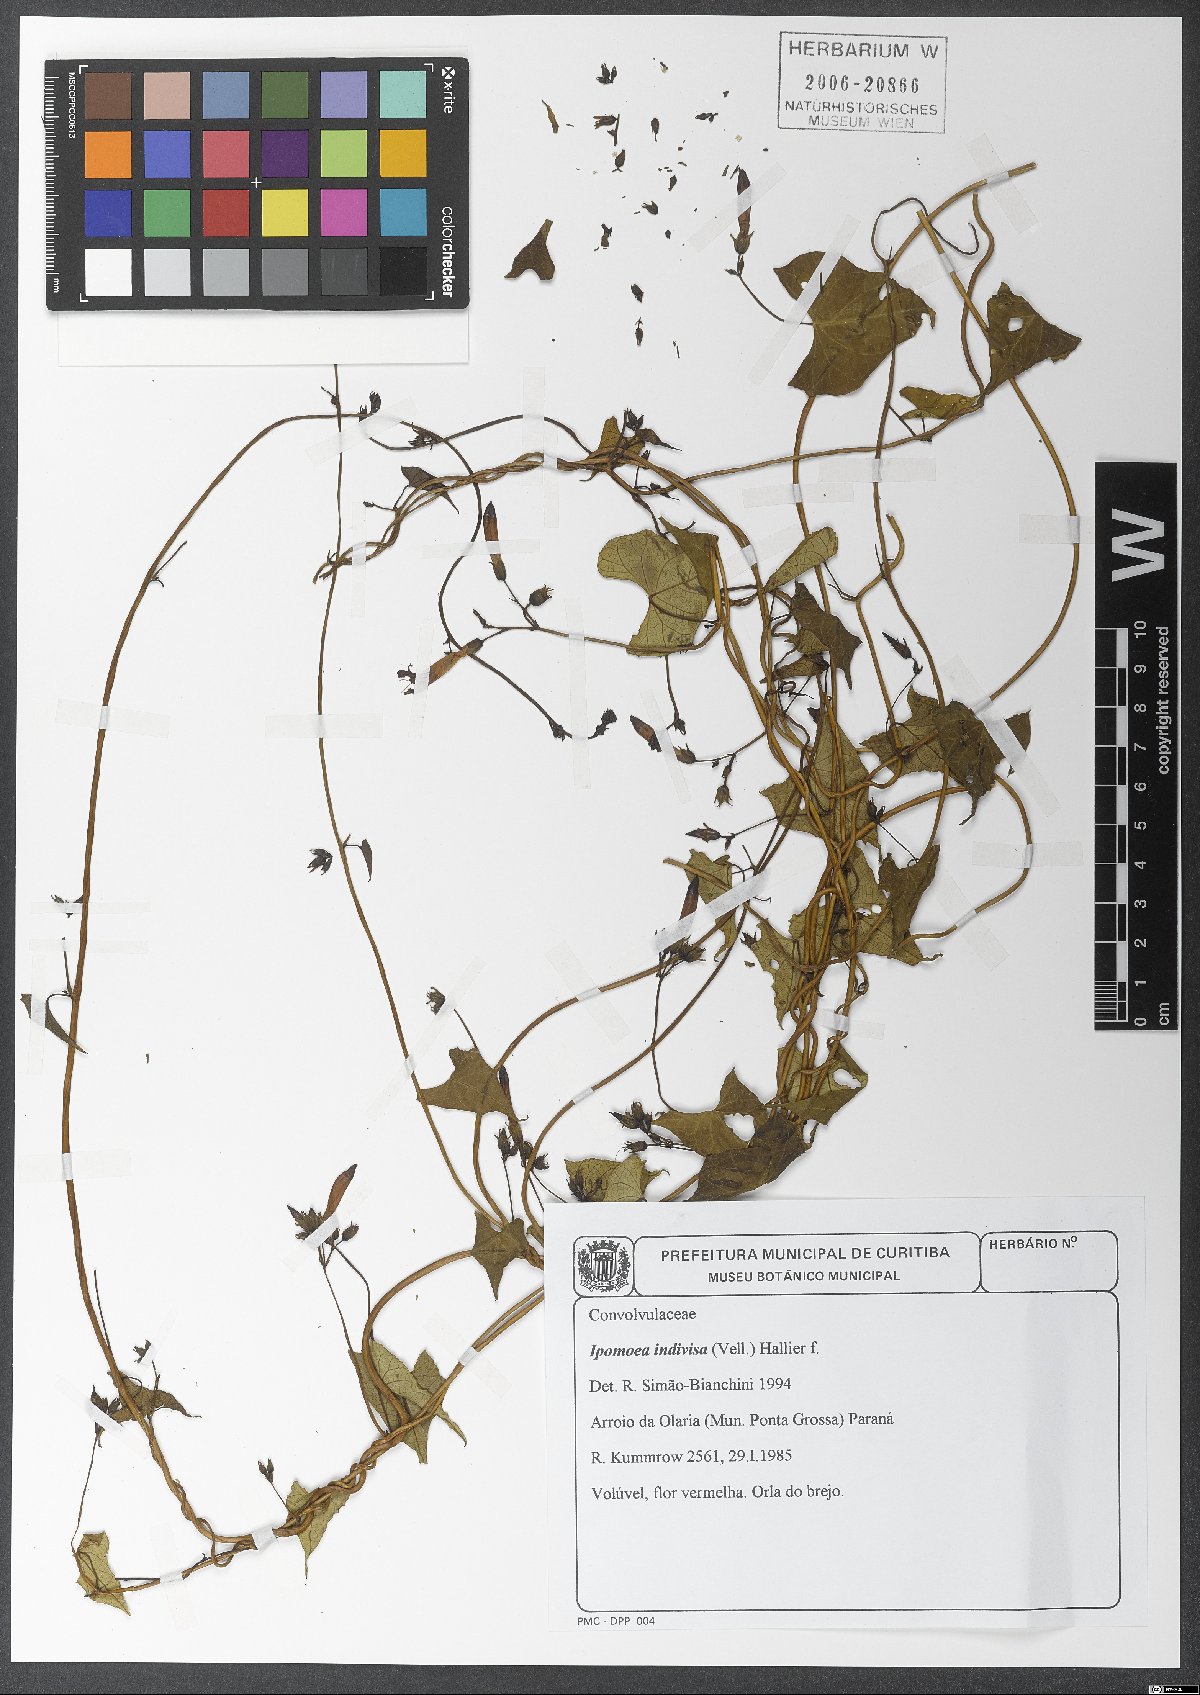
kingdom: Plantae
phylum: Tracheophyta
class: Magnoliopsida
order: Solanales
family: Convolvulaceae
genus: Ipomoea
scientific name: Ipomoea indivisa
